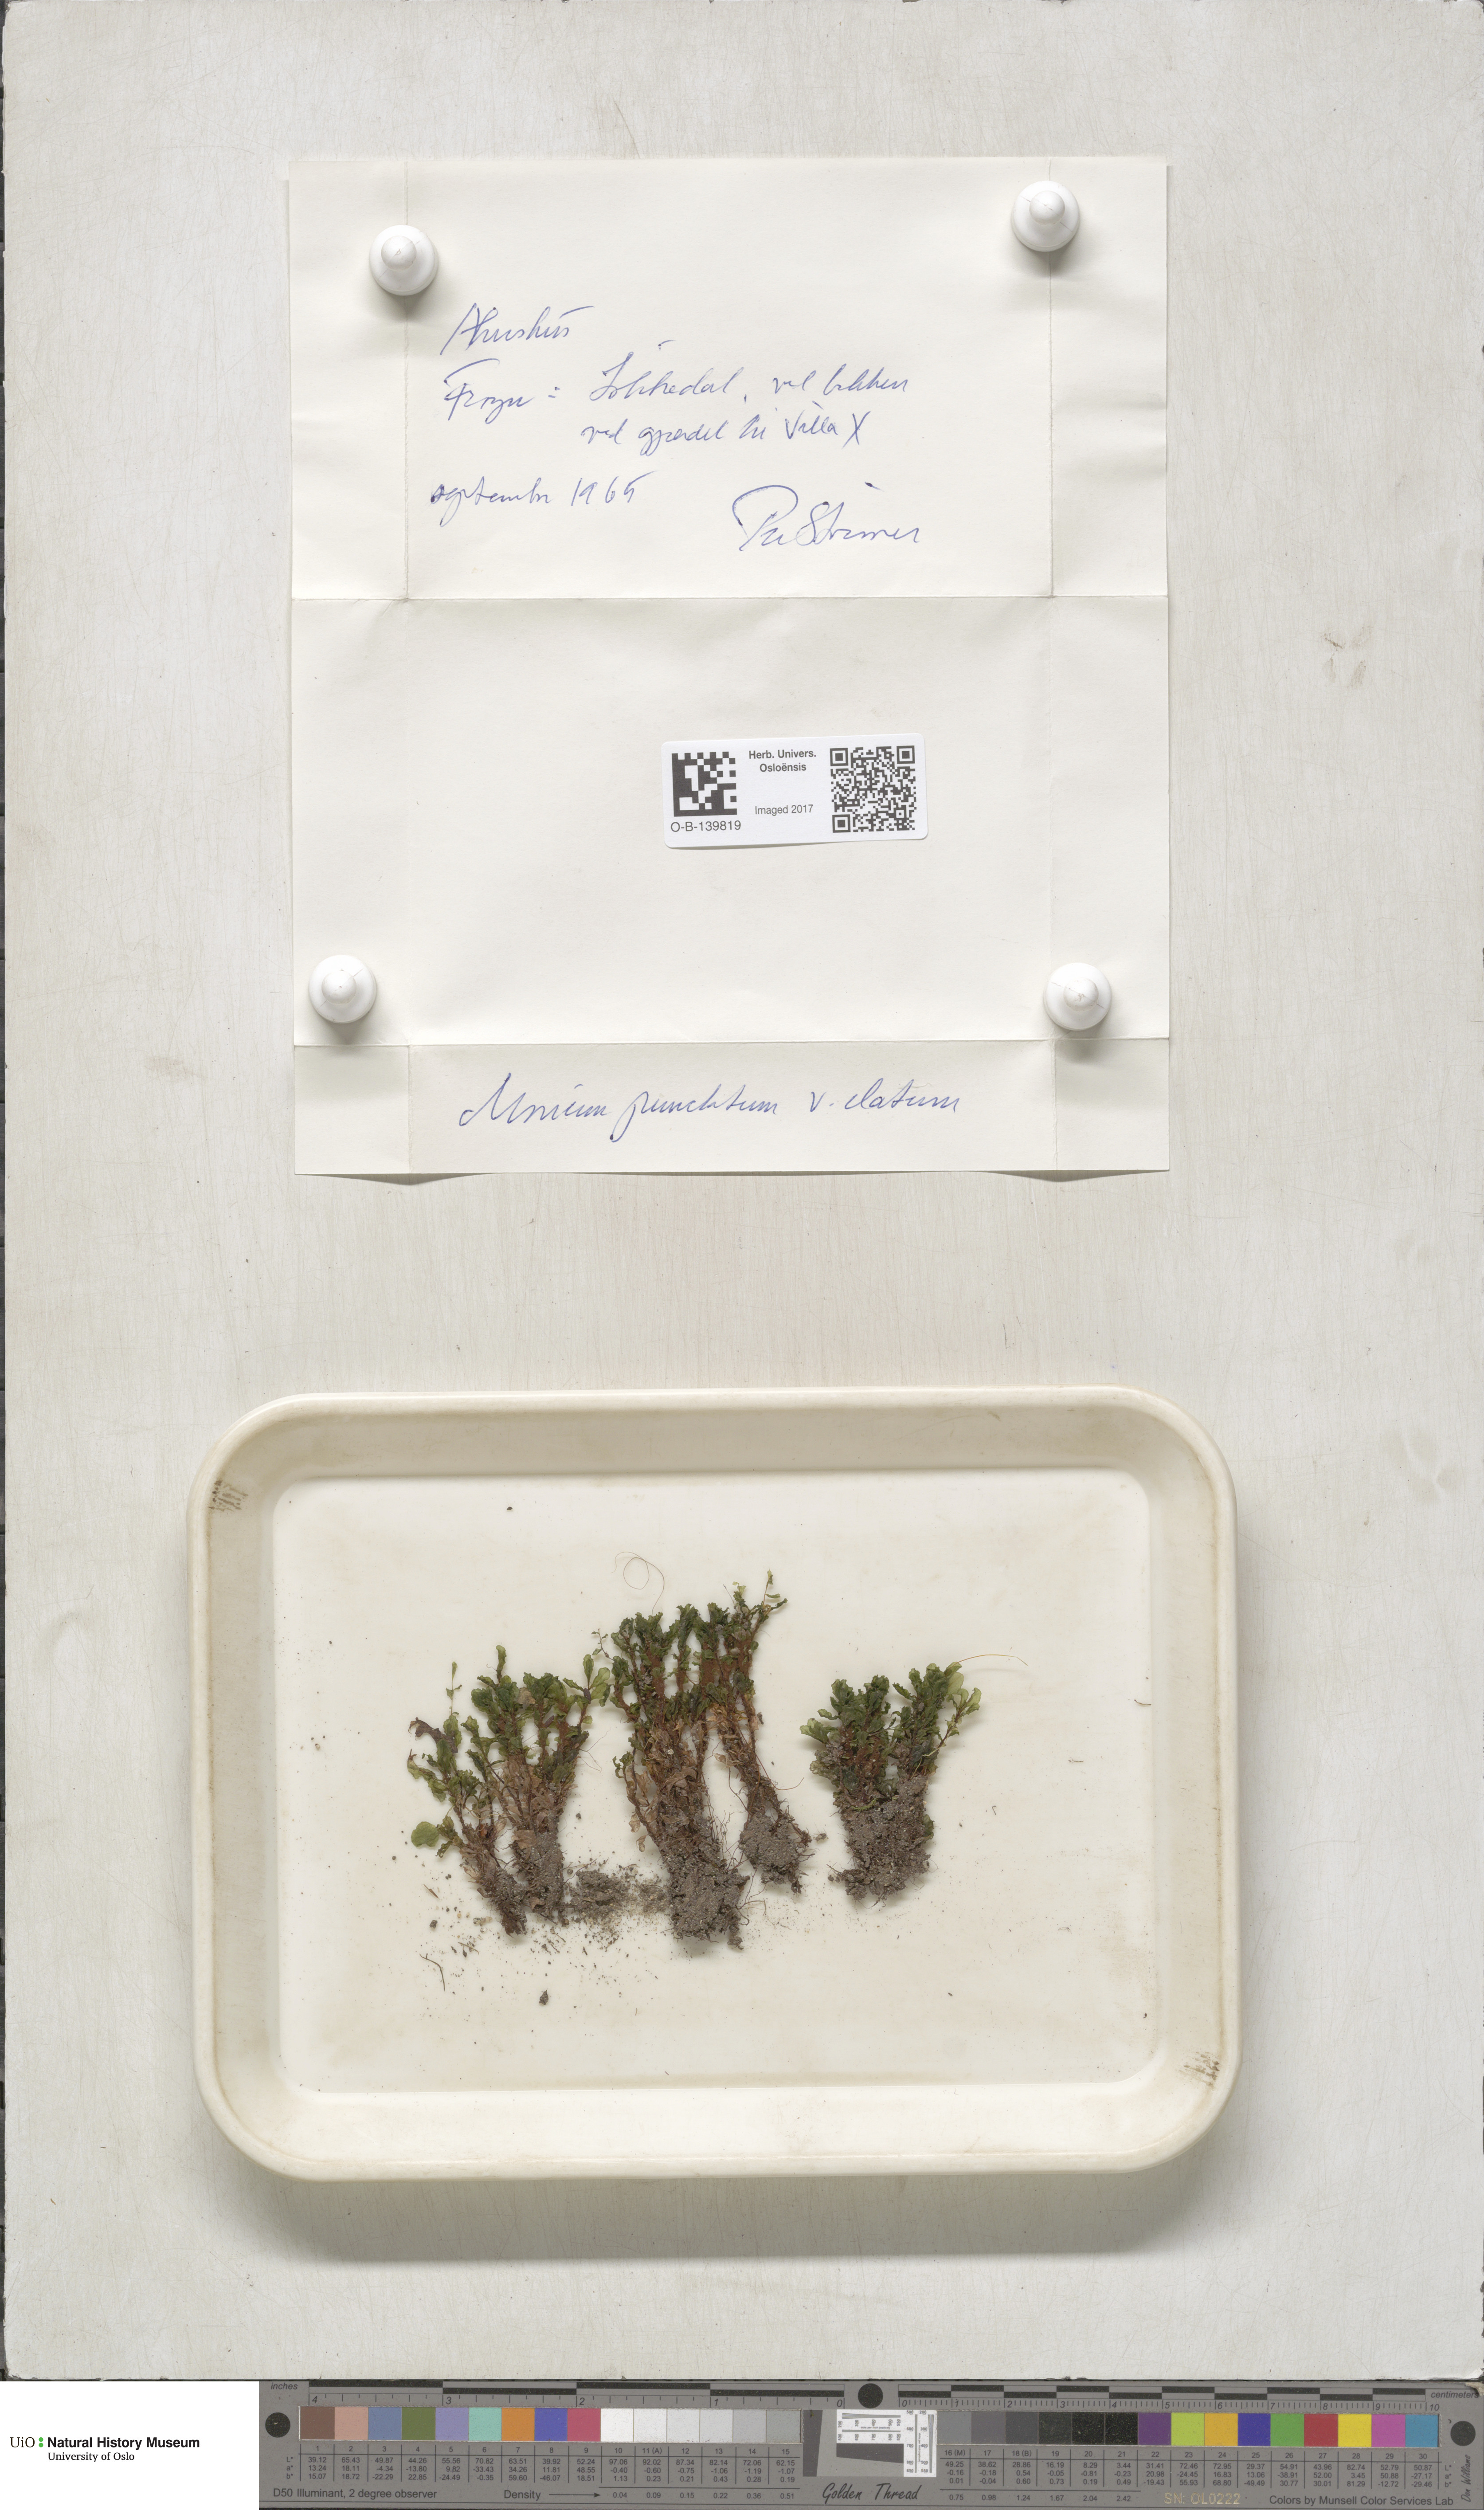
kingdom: Plantae
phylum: Bryophyta
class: Bryopsida
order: Bryales
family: Mniaceae
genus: Rhizomnium
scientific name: Rhizomnium magnifolium
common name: Large-leaved leafy moss
